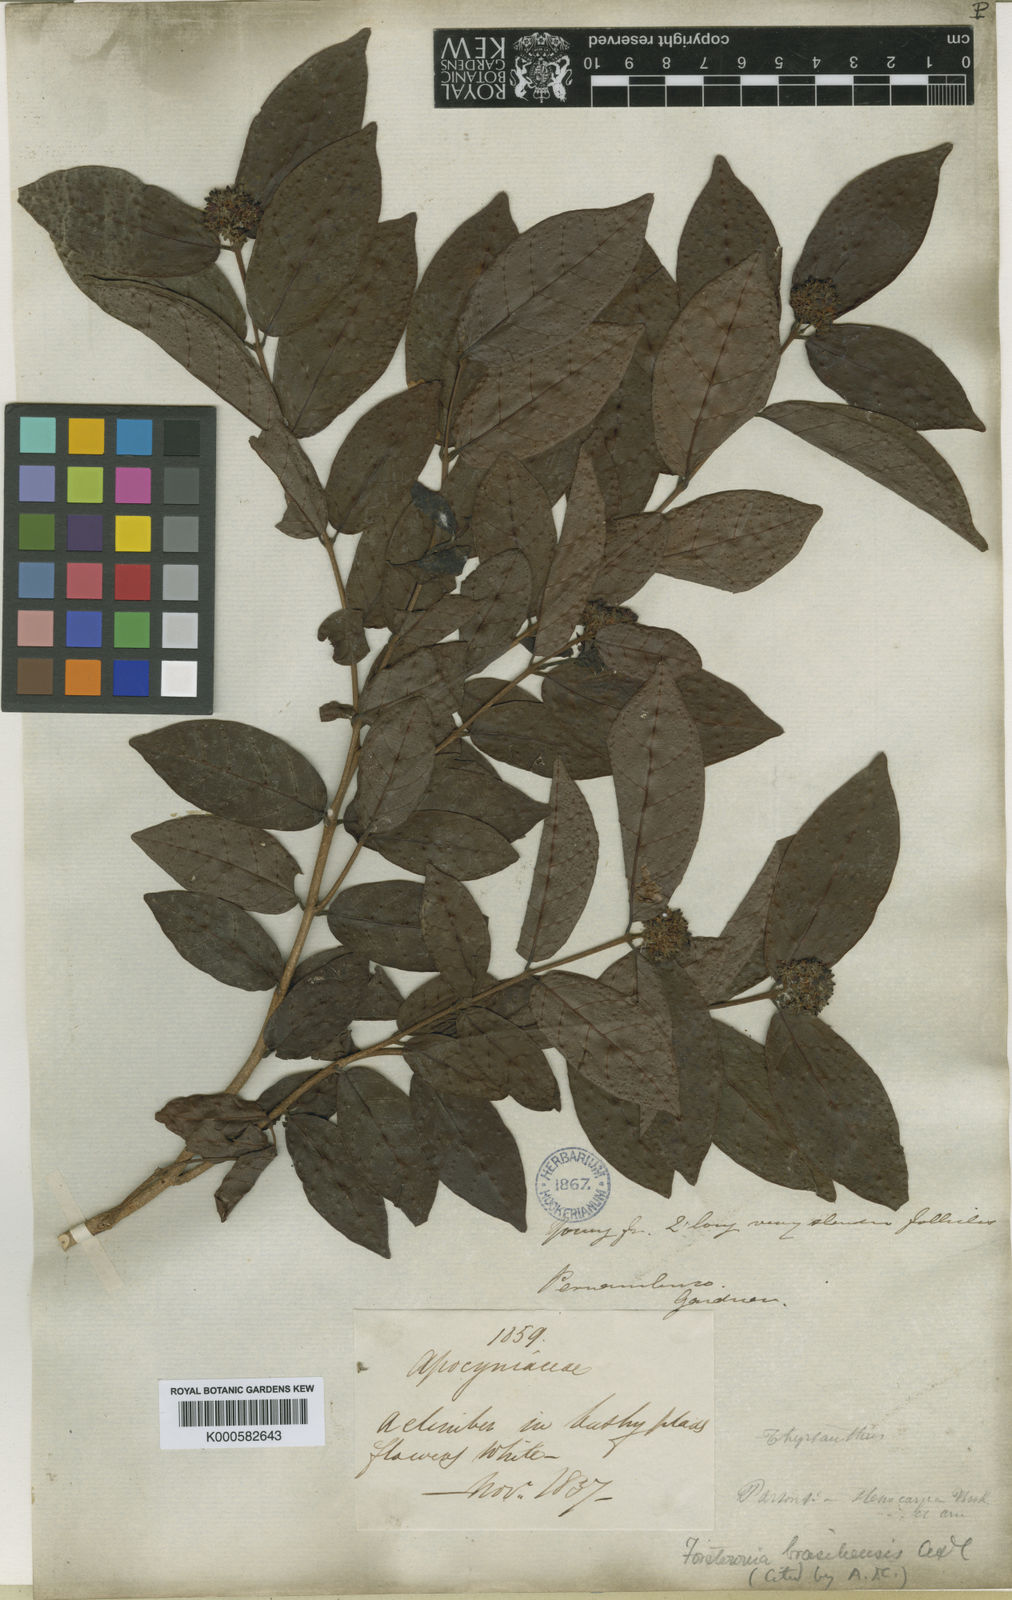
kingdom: Plantae
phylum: Tracheophyta
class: Magnoliopsida
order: Gentianales
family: Apocynaceae
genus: Forsteronia
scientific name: Forsteronia leptocarpa
